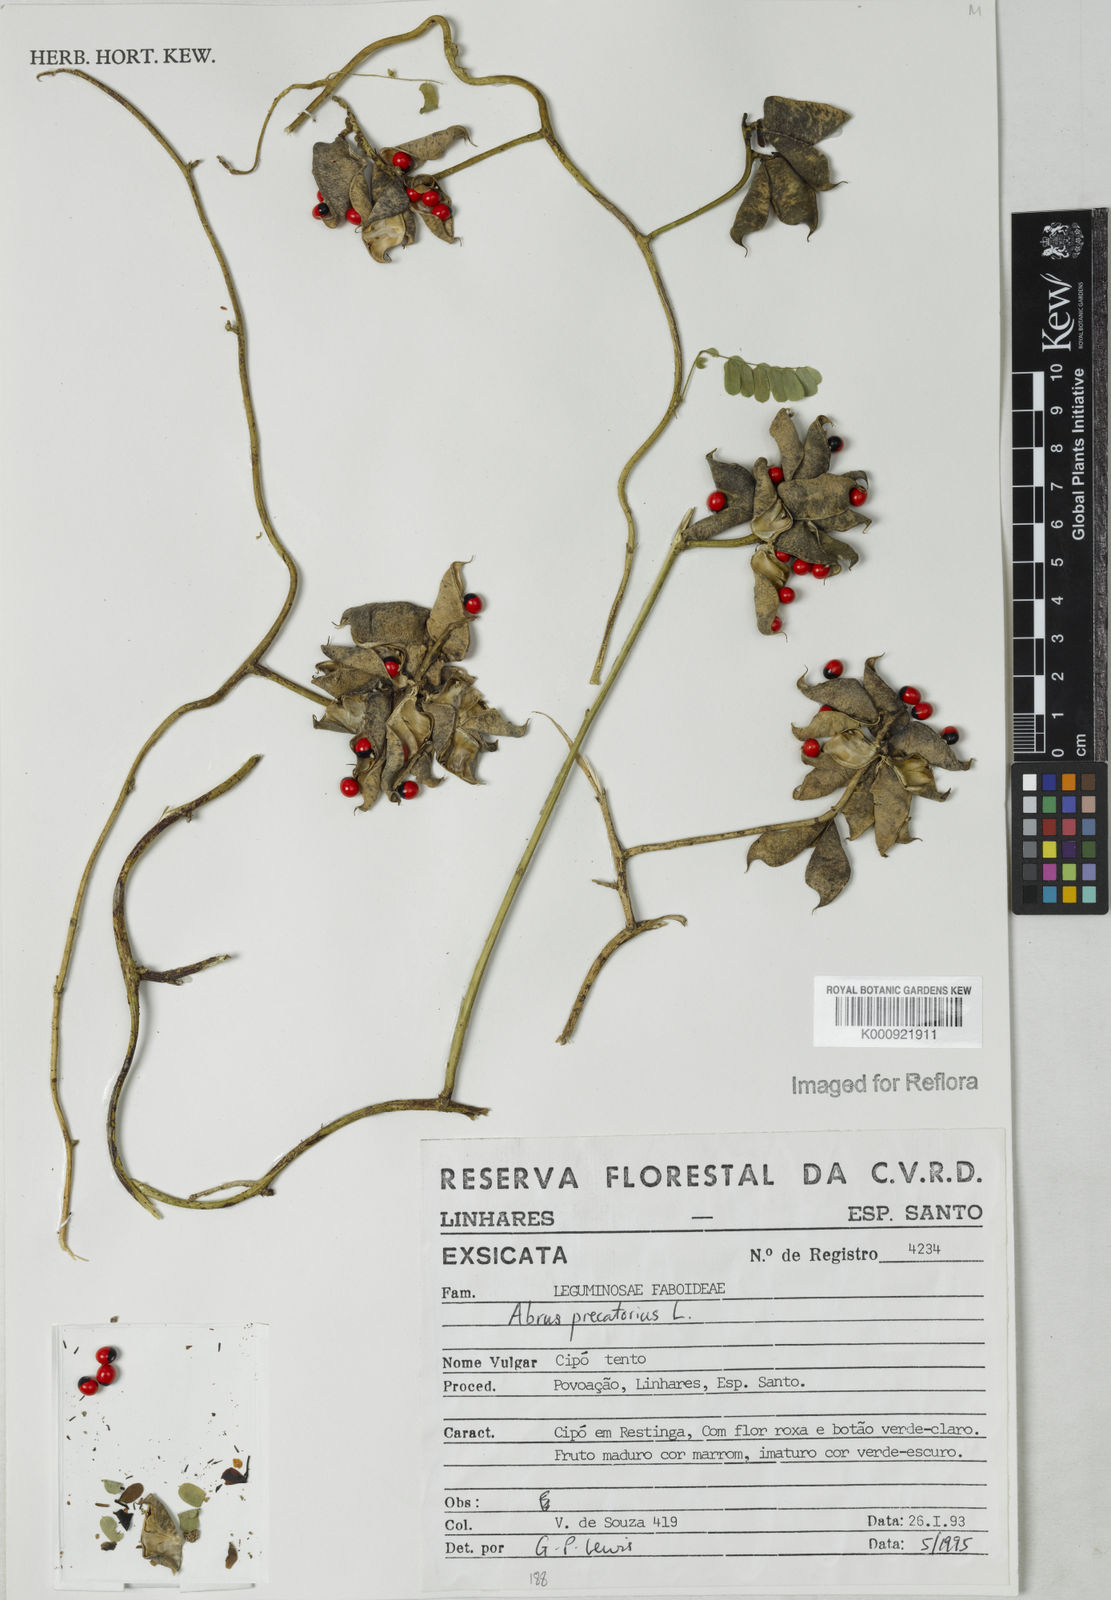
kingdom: Plantae
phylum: Tracheophyta
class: Magnoliopsida
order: Fabales
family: Fabaceae
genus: Abrus
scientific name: Abrus precatorius
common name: Rosarypea
